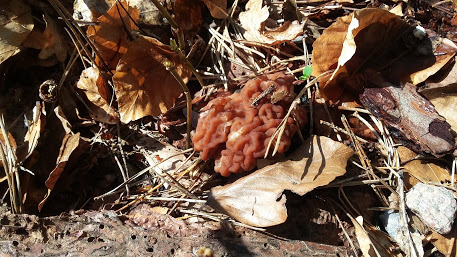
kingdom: Fungi
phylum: Ascomycota
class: Pezizomycetes
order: Pezizales
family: Discinaceae
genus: Gyromitra
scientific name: Gyromitra esculenta
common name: ægte stenmorkel
